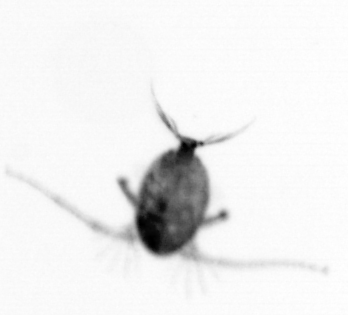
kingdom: Animalia
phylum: Arthropoda
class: Copepoda
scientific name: Copepoda
